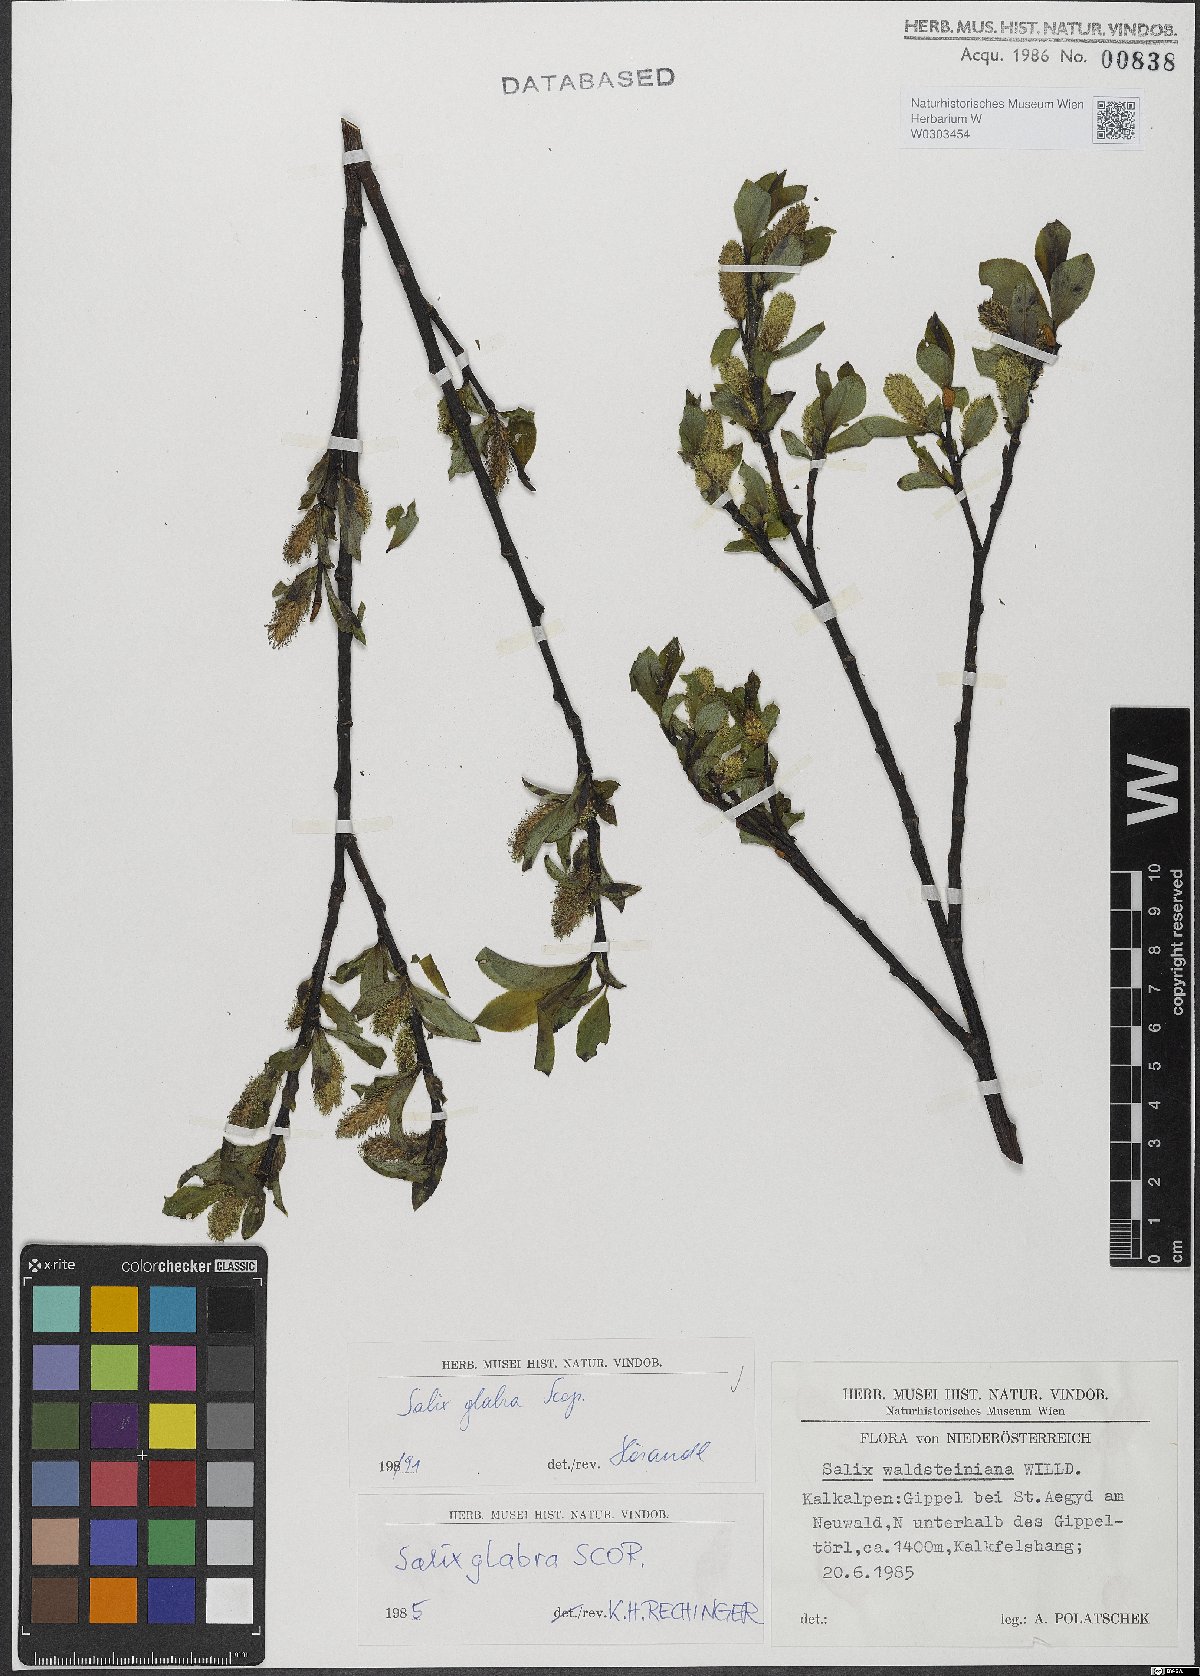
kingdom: Plantae
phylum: Tracheophyta
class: Magnoliopsida
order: Malpighiales
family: Salicaceae
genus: Salix
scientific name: Salix glabra
